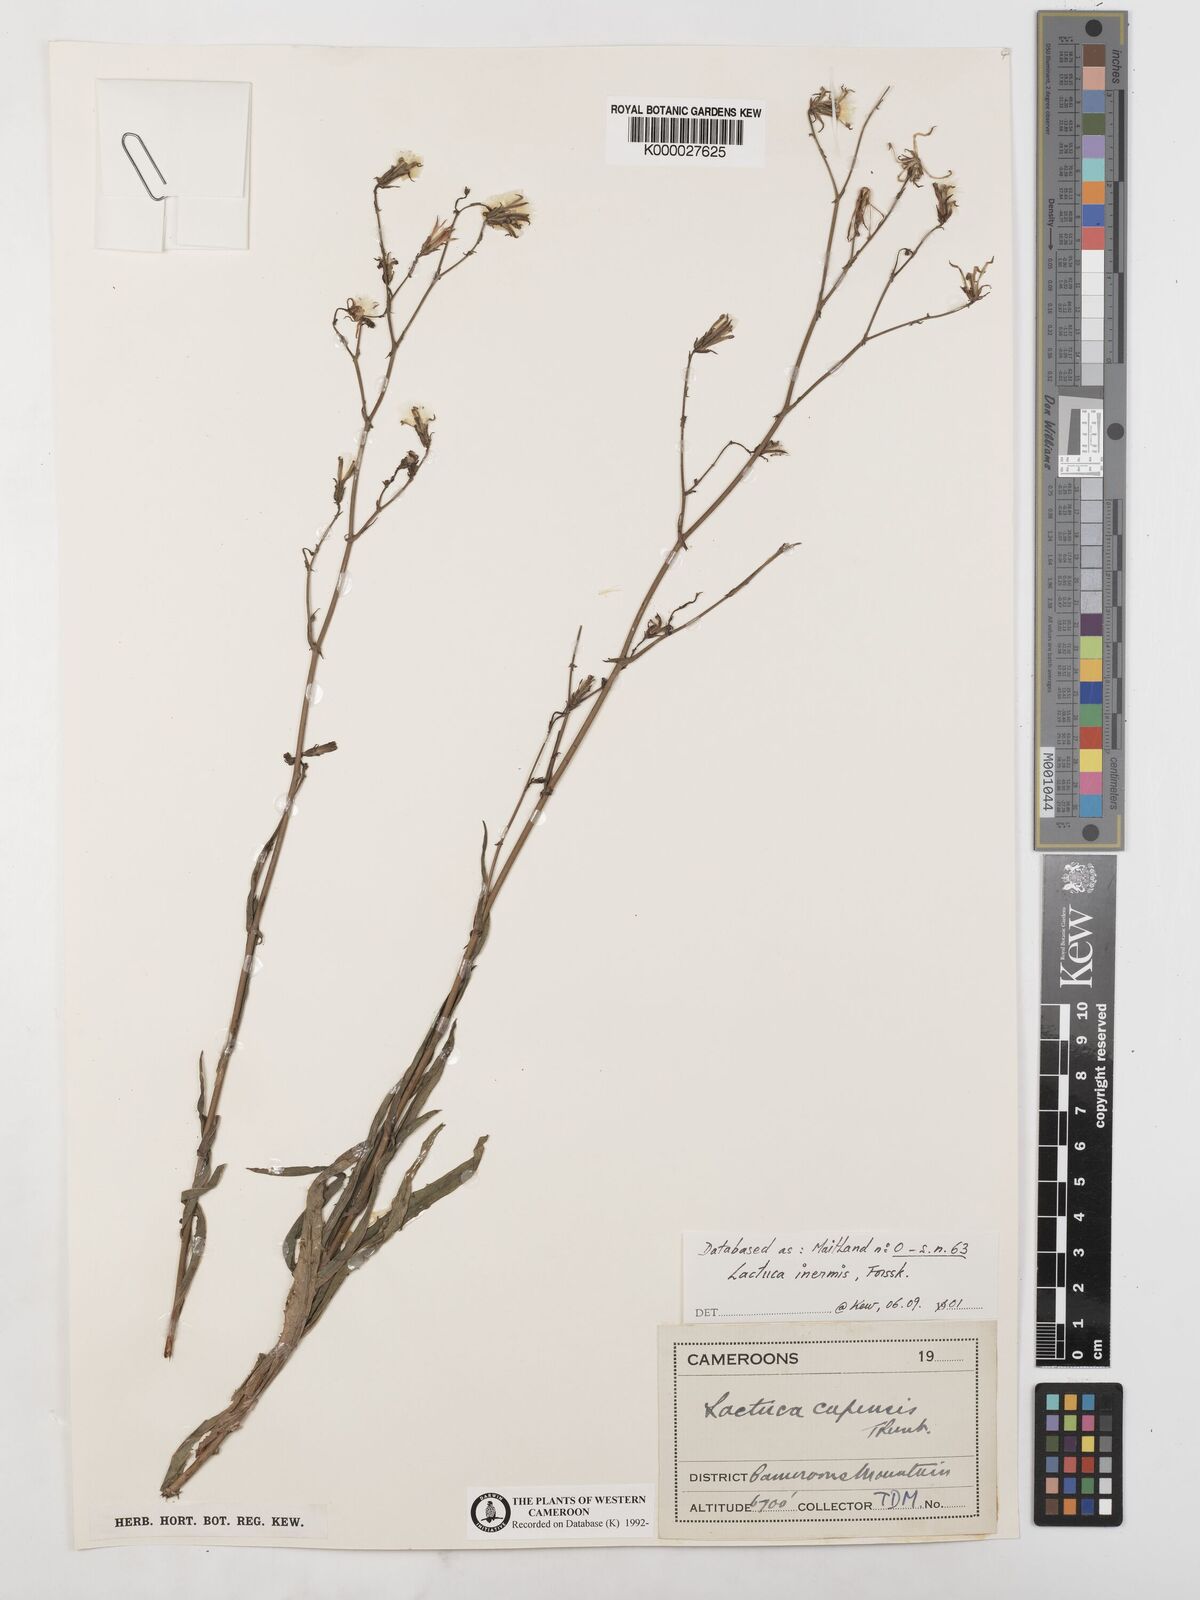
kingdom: Plantae
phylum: Tracheophyta
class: Magnoliopsida
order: Asterales
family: Asteraceae
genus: Lactuca
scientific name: Lactuca inermis
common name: Wild lettuce
